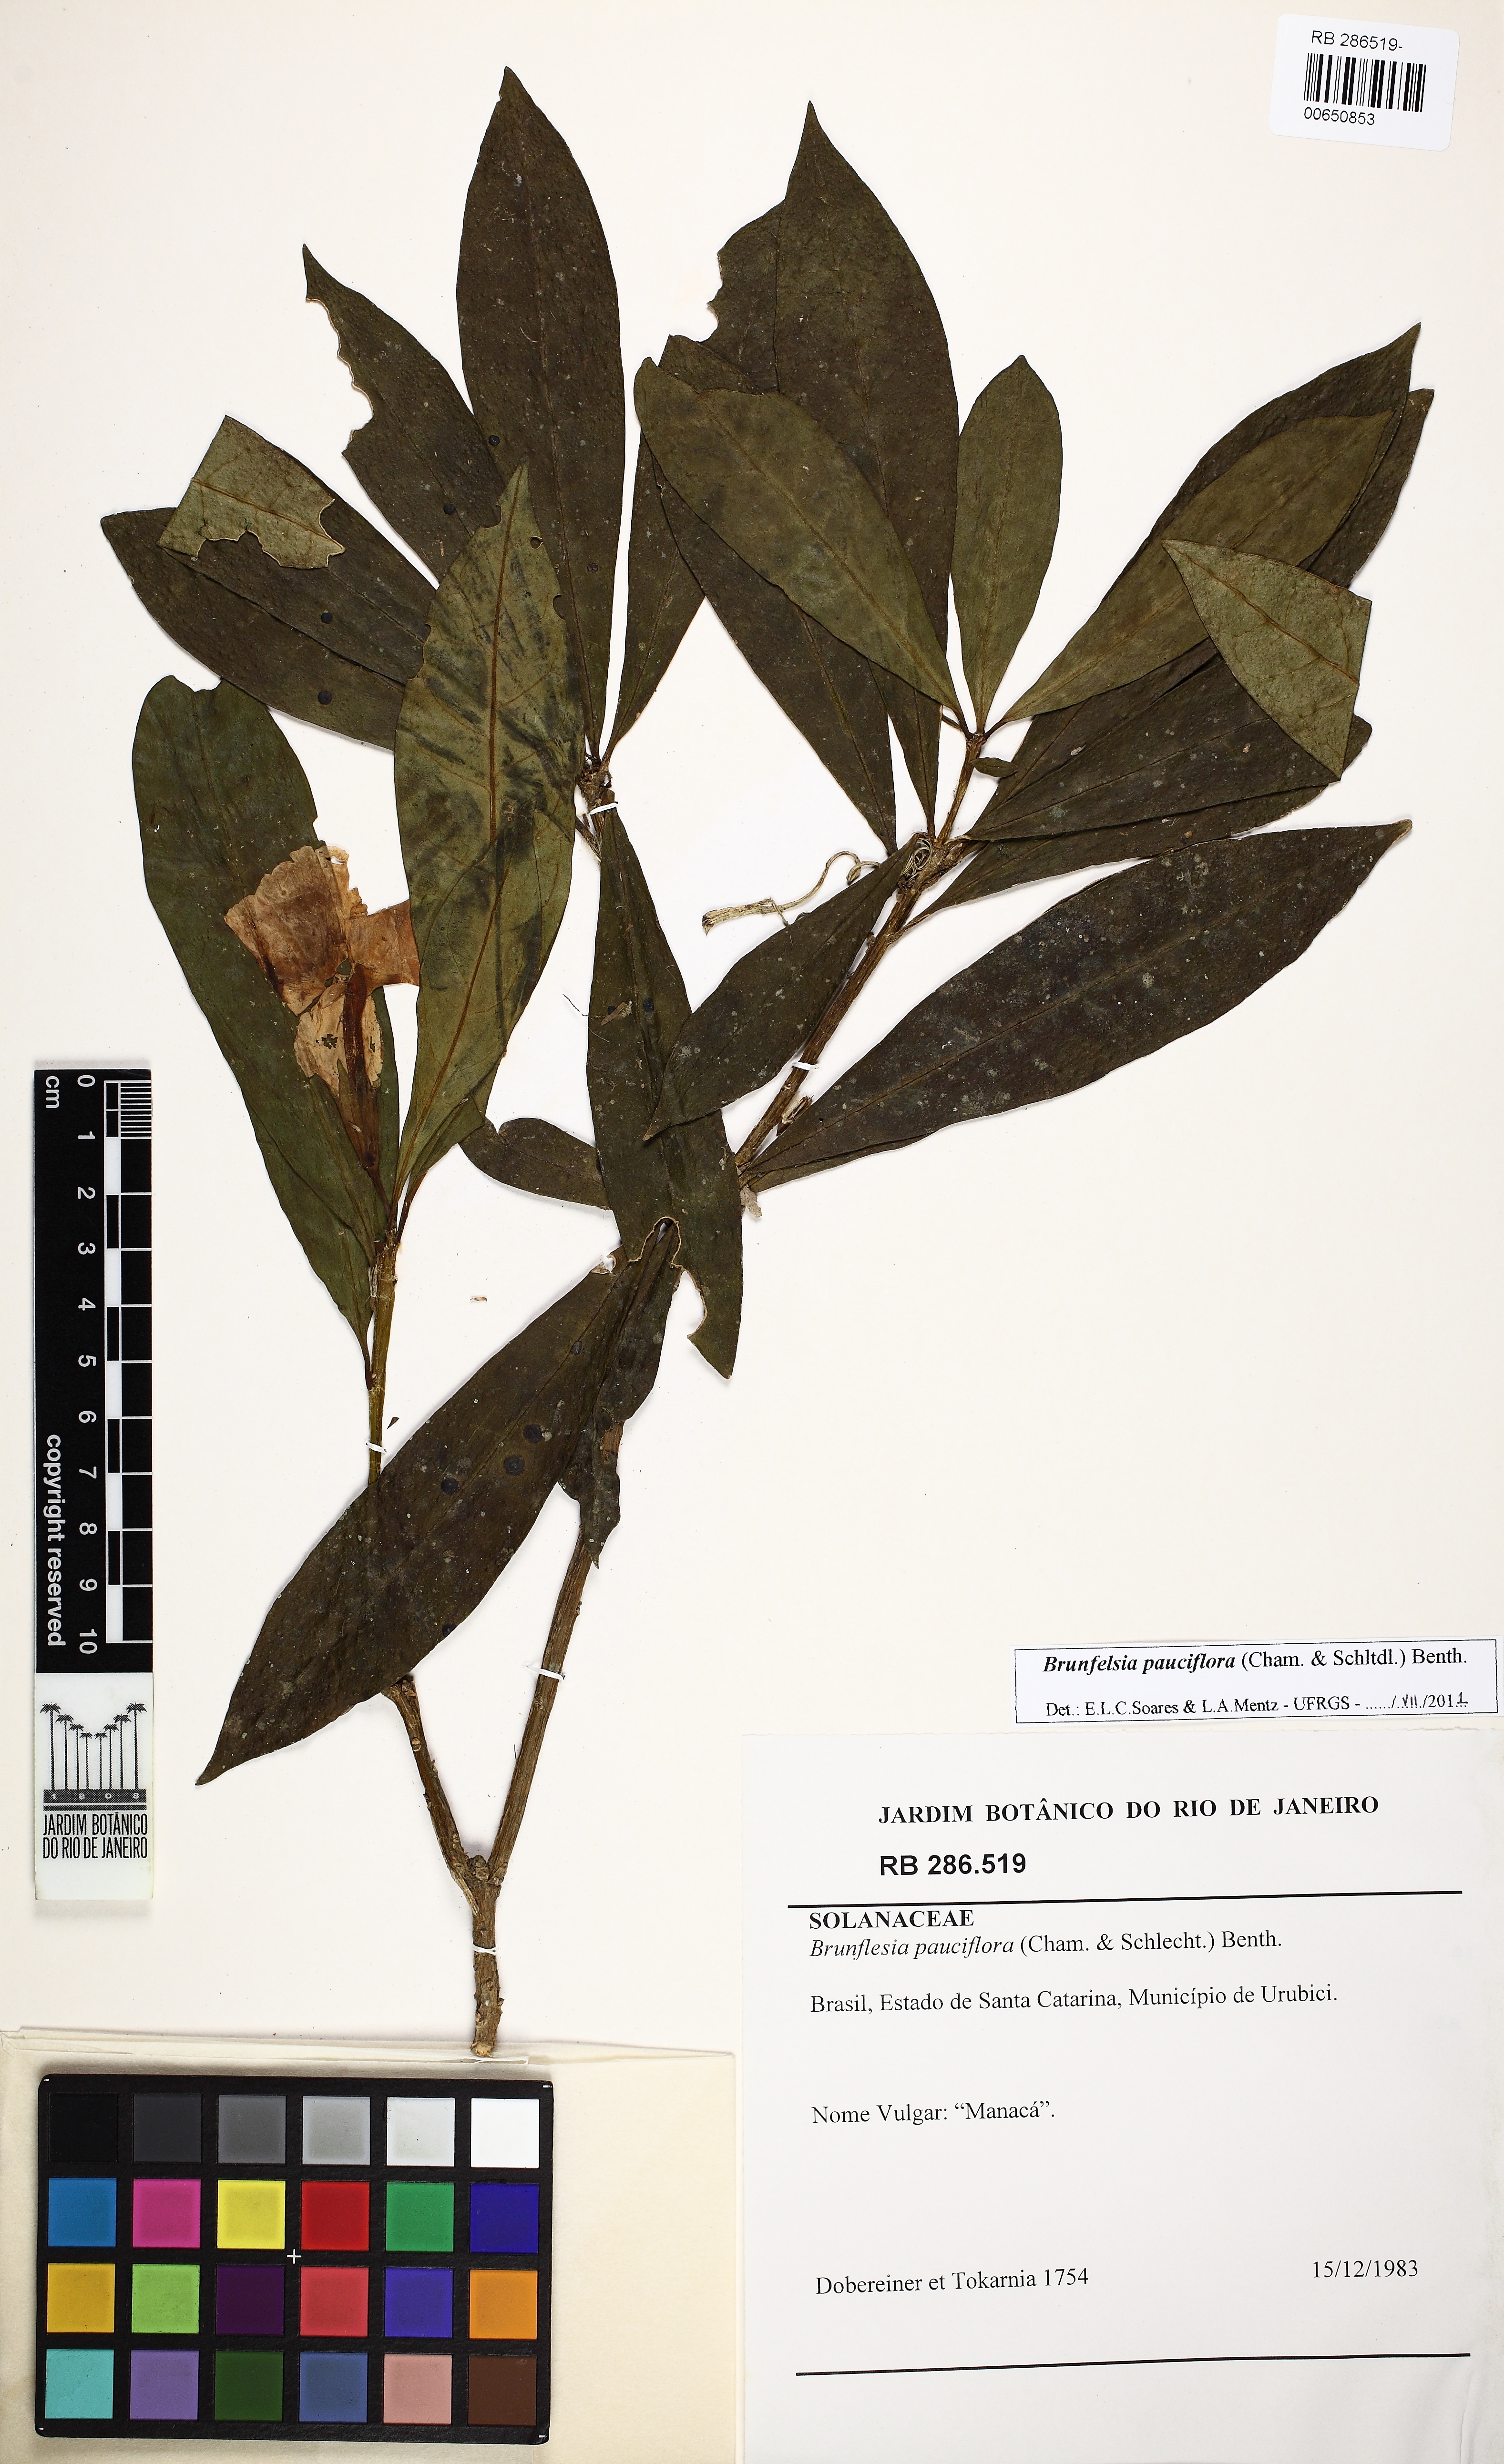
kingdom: Plantae
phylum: Tracheophyta
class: Magnoliopsida
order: Solanales
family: Solanaceae
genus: Brunfelsia
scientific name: Brunfelsia pauciflora
